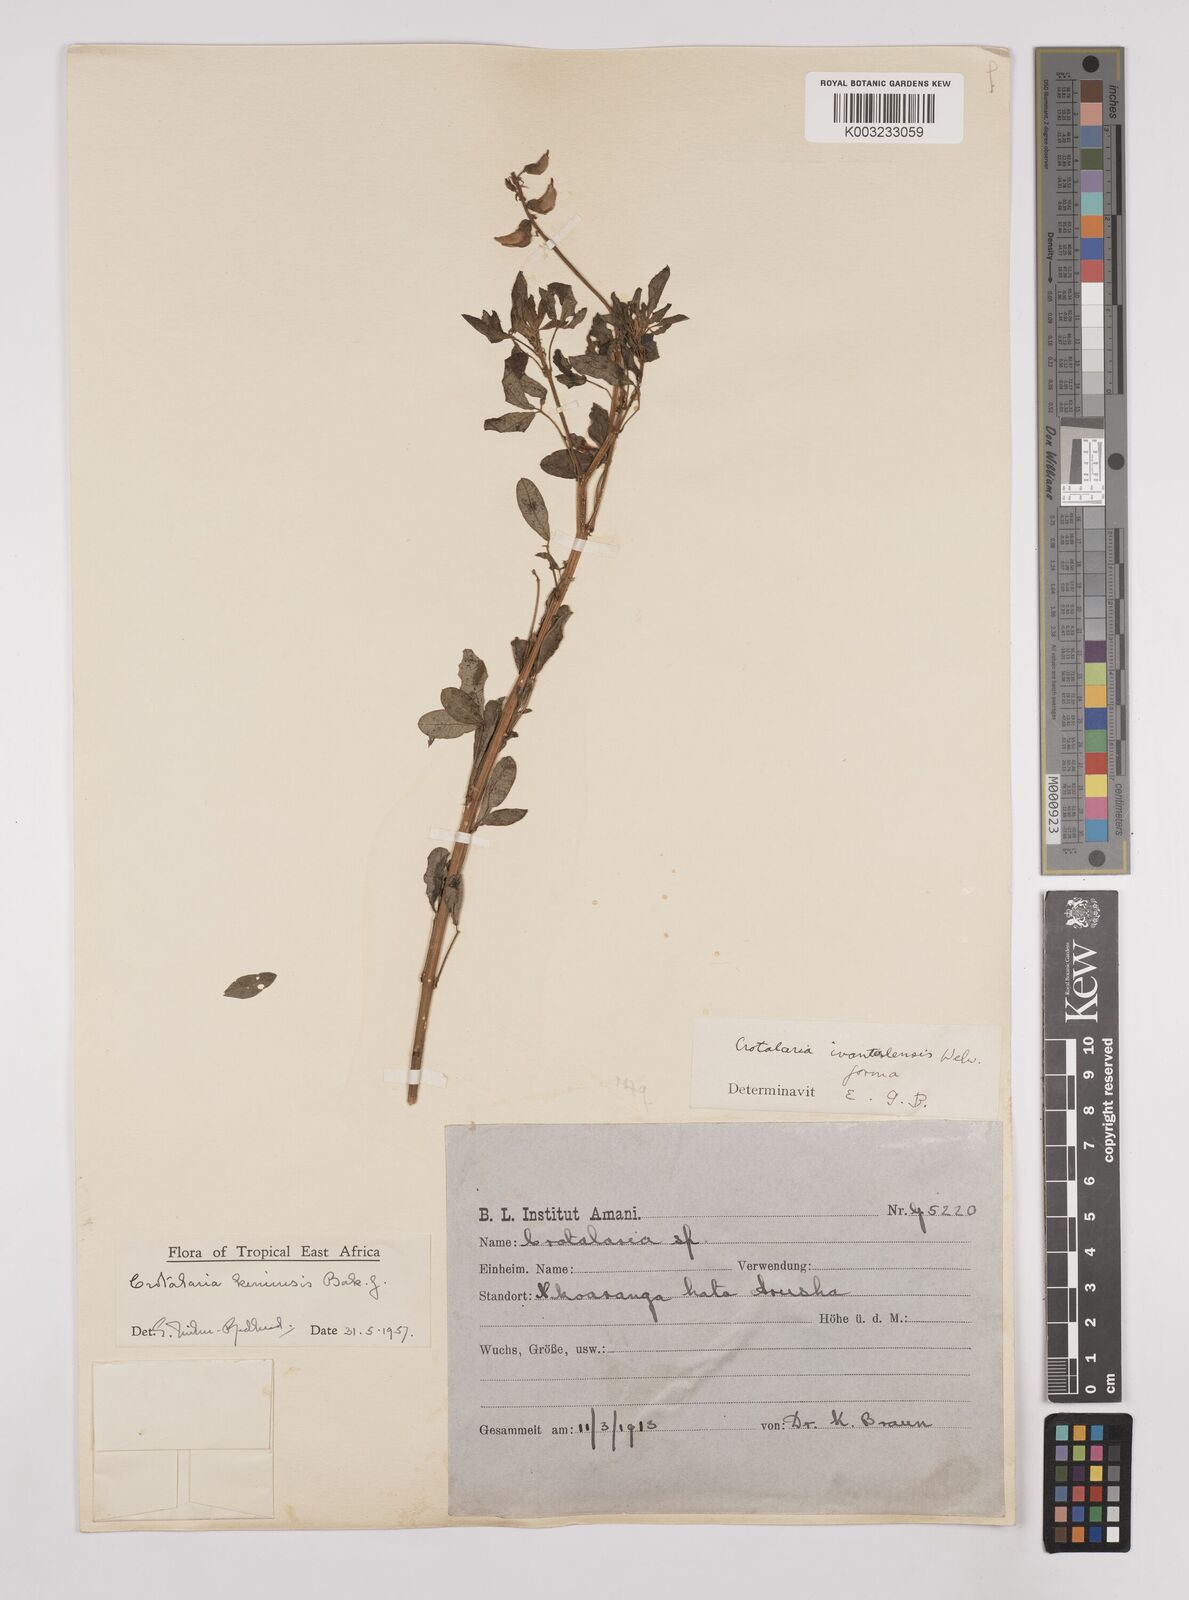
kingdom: Plantae
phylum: Tracheophyta
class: Magnoliopsida
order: Fabales
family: Fabaceae
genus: Crotalaria
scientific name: Crotalaria keniensis
